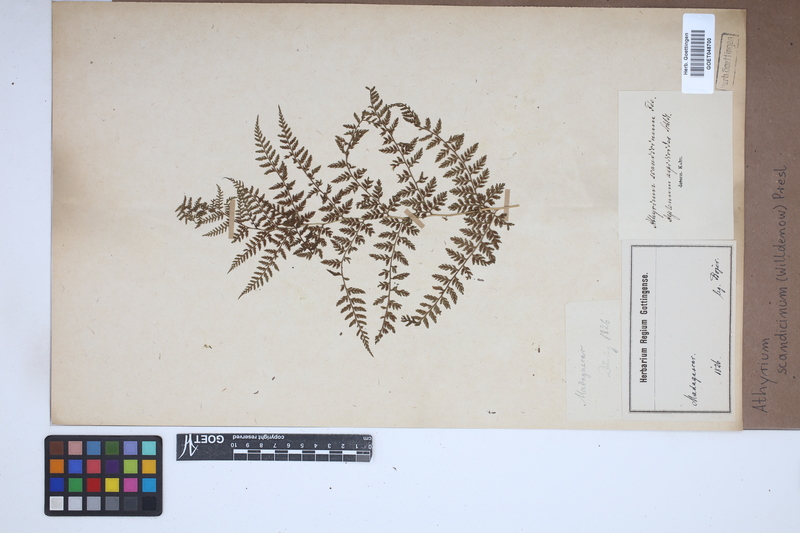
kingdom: Plantae
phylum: Tracheophyta
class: Polypodiopsida
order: Polypodiales
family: Athyriaceae
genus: Athyrium
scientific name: Athyrium scandicinum
